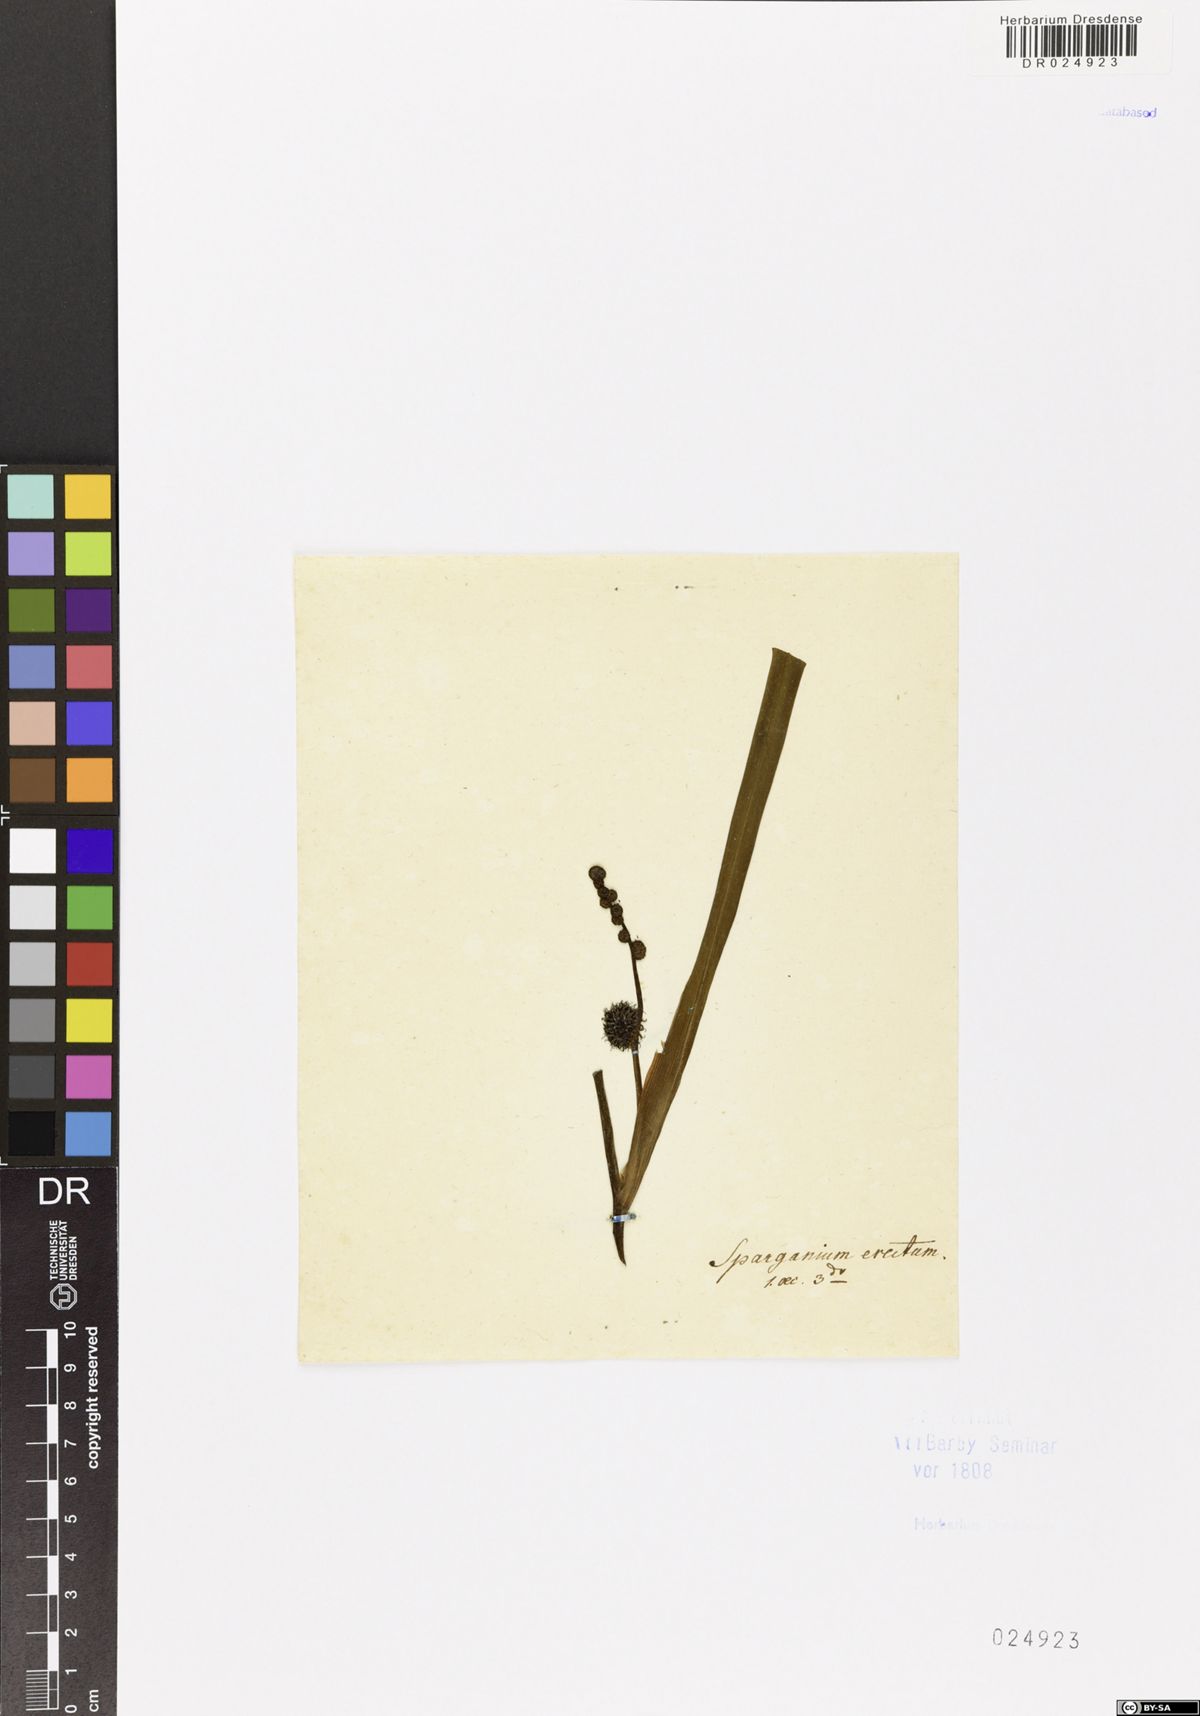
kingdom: Plantae
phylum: Tracheophyta
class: Liliopsida
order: Poales
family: Typhaceae
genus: Sparganium
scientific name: Sparganium erectum
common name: Branched bur-reed
